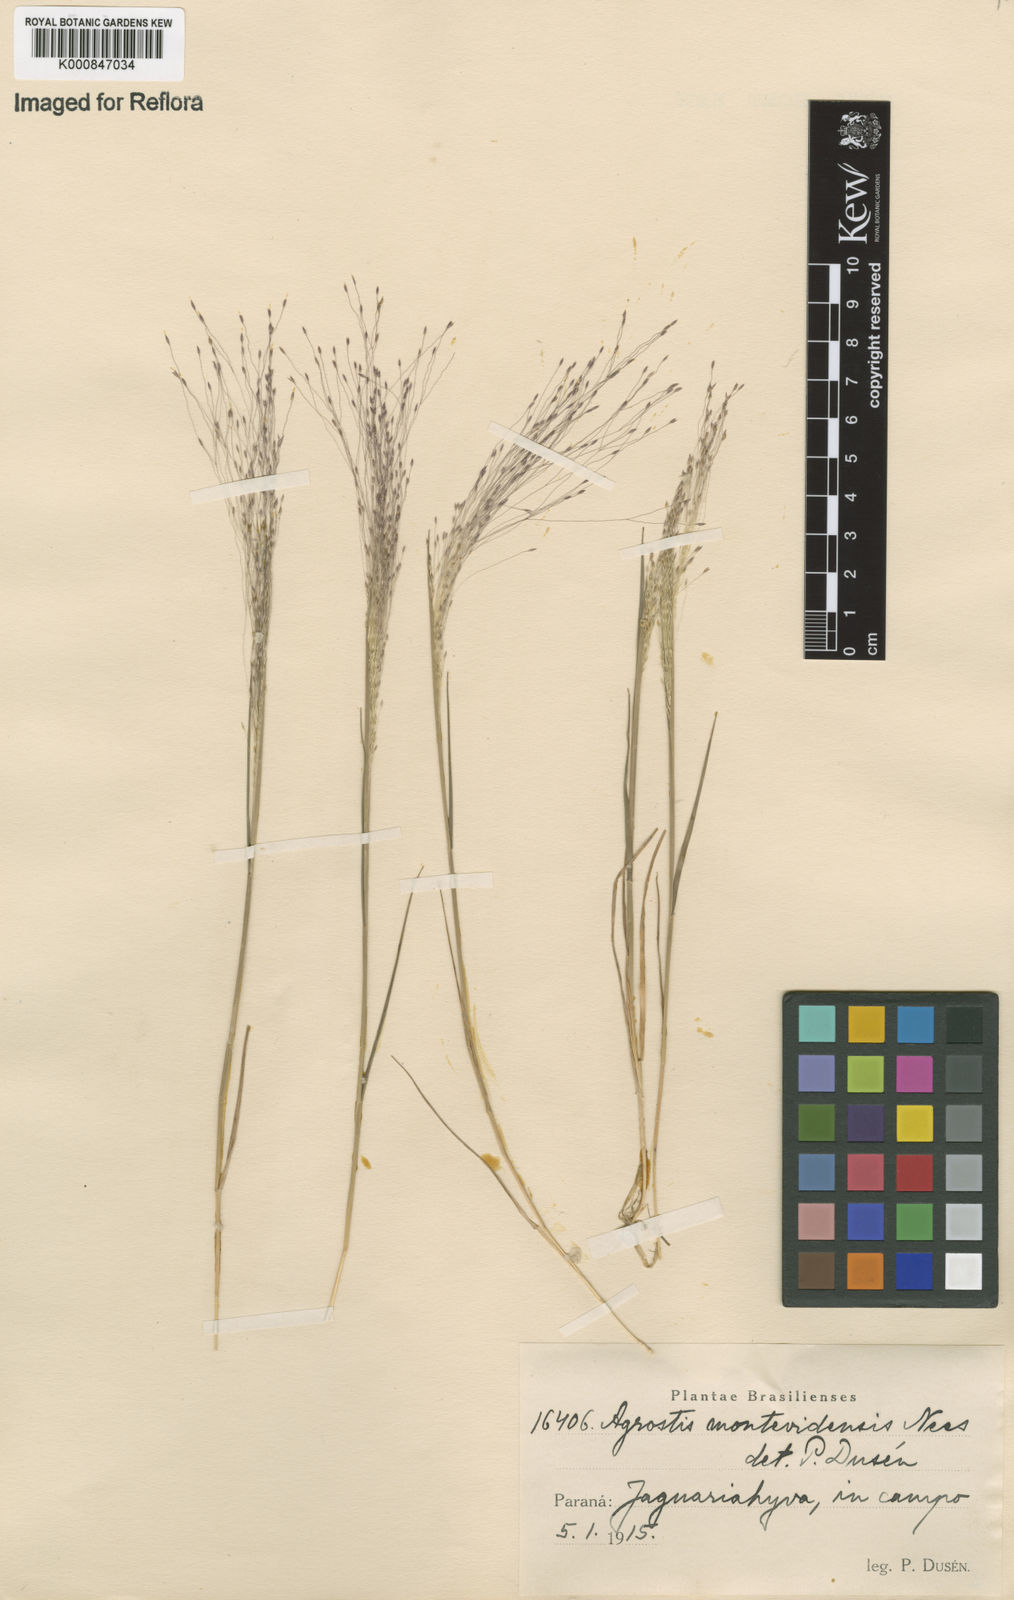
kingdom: Plantae
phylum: Tracheophyta
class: Liliopsida
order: Poales
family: Poaceae
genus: Agrostis
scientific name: Agrostis montevidensis
